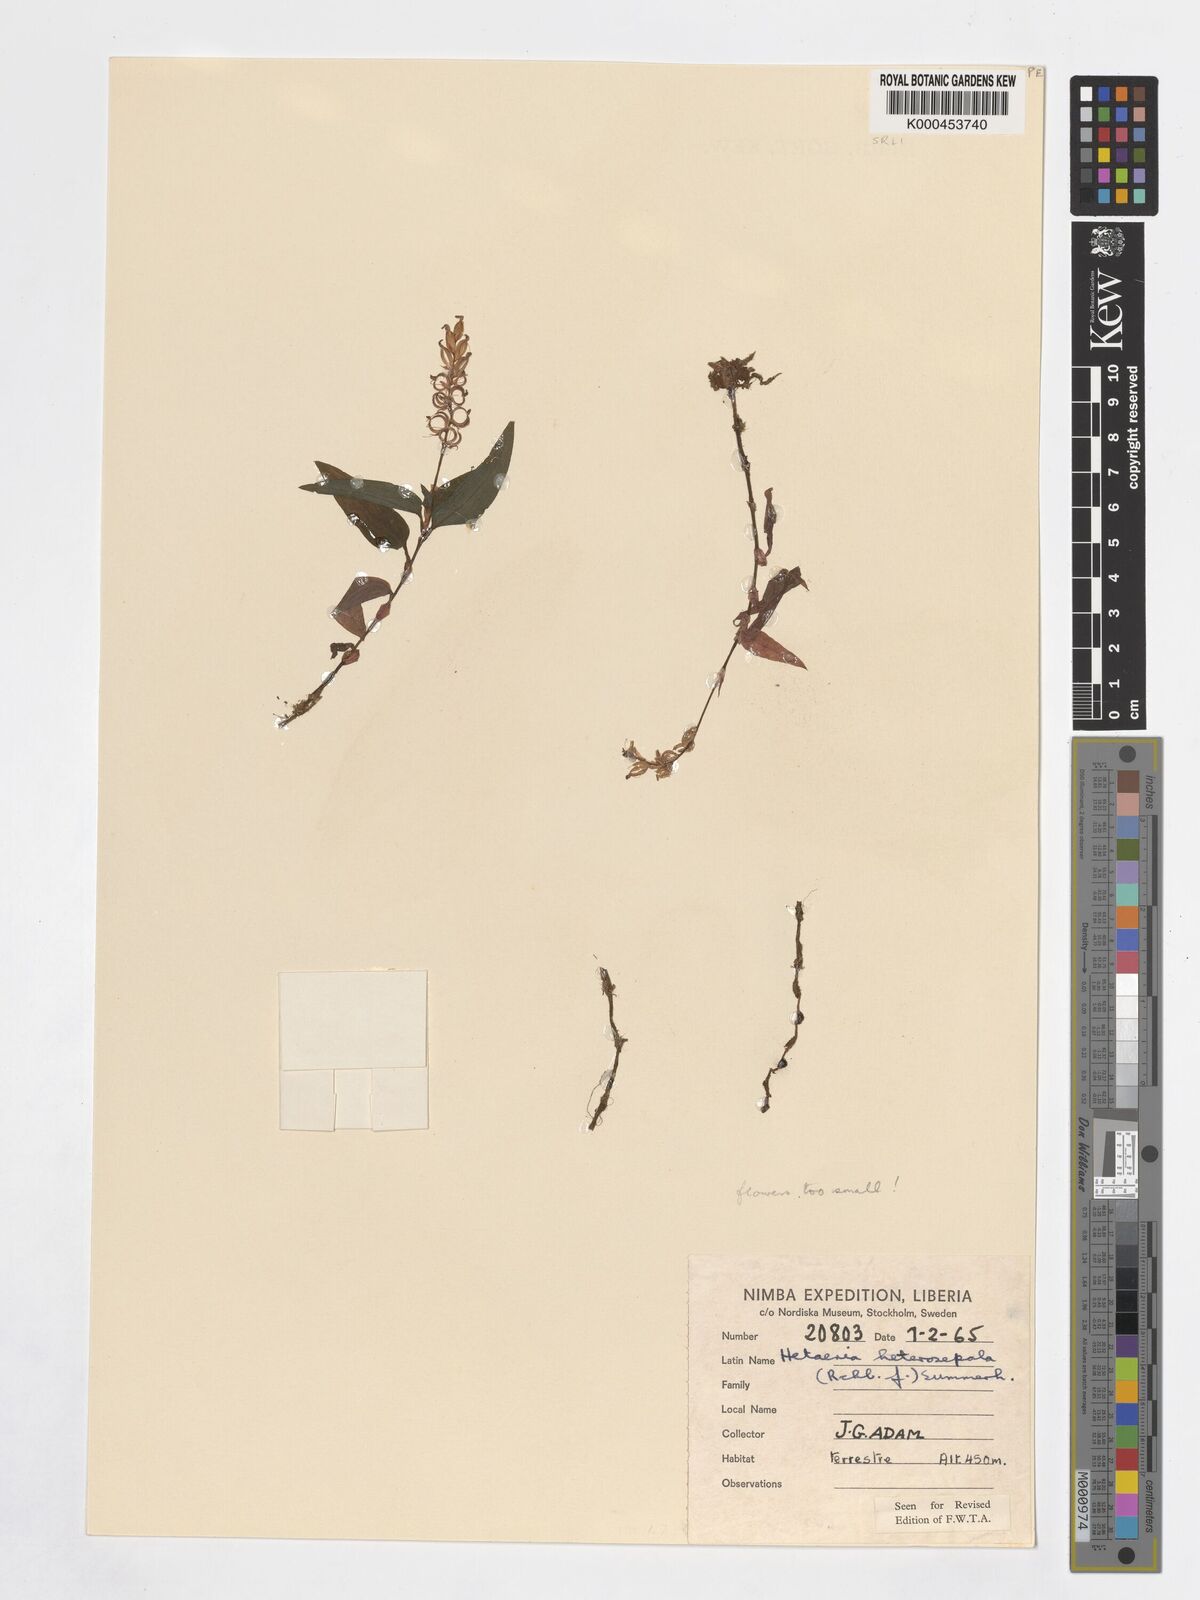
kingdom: Plantae
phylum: Tracheophyta
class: Liliopsida
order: Asparagales
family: Orchidaceae
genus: Hetaeria
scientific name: Hetaeria heterosepala
